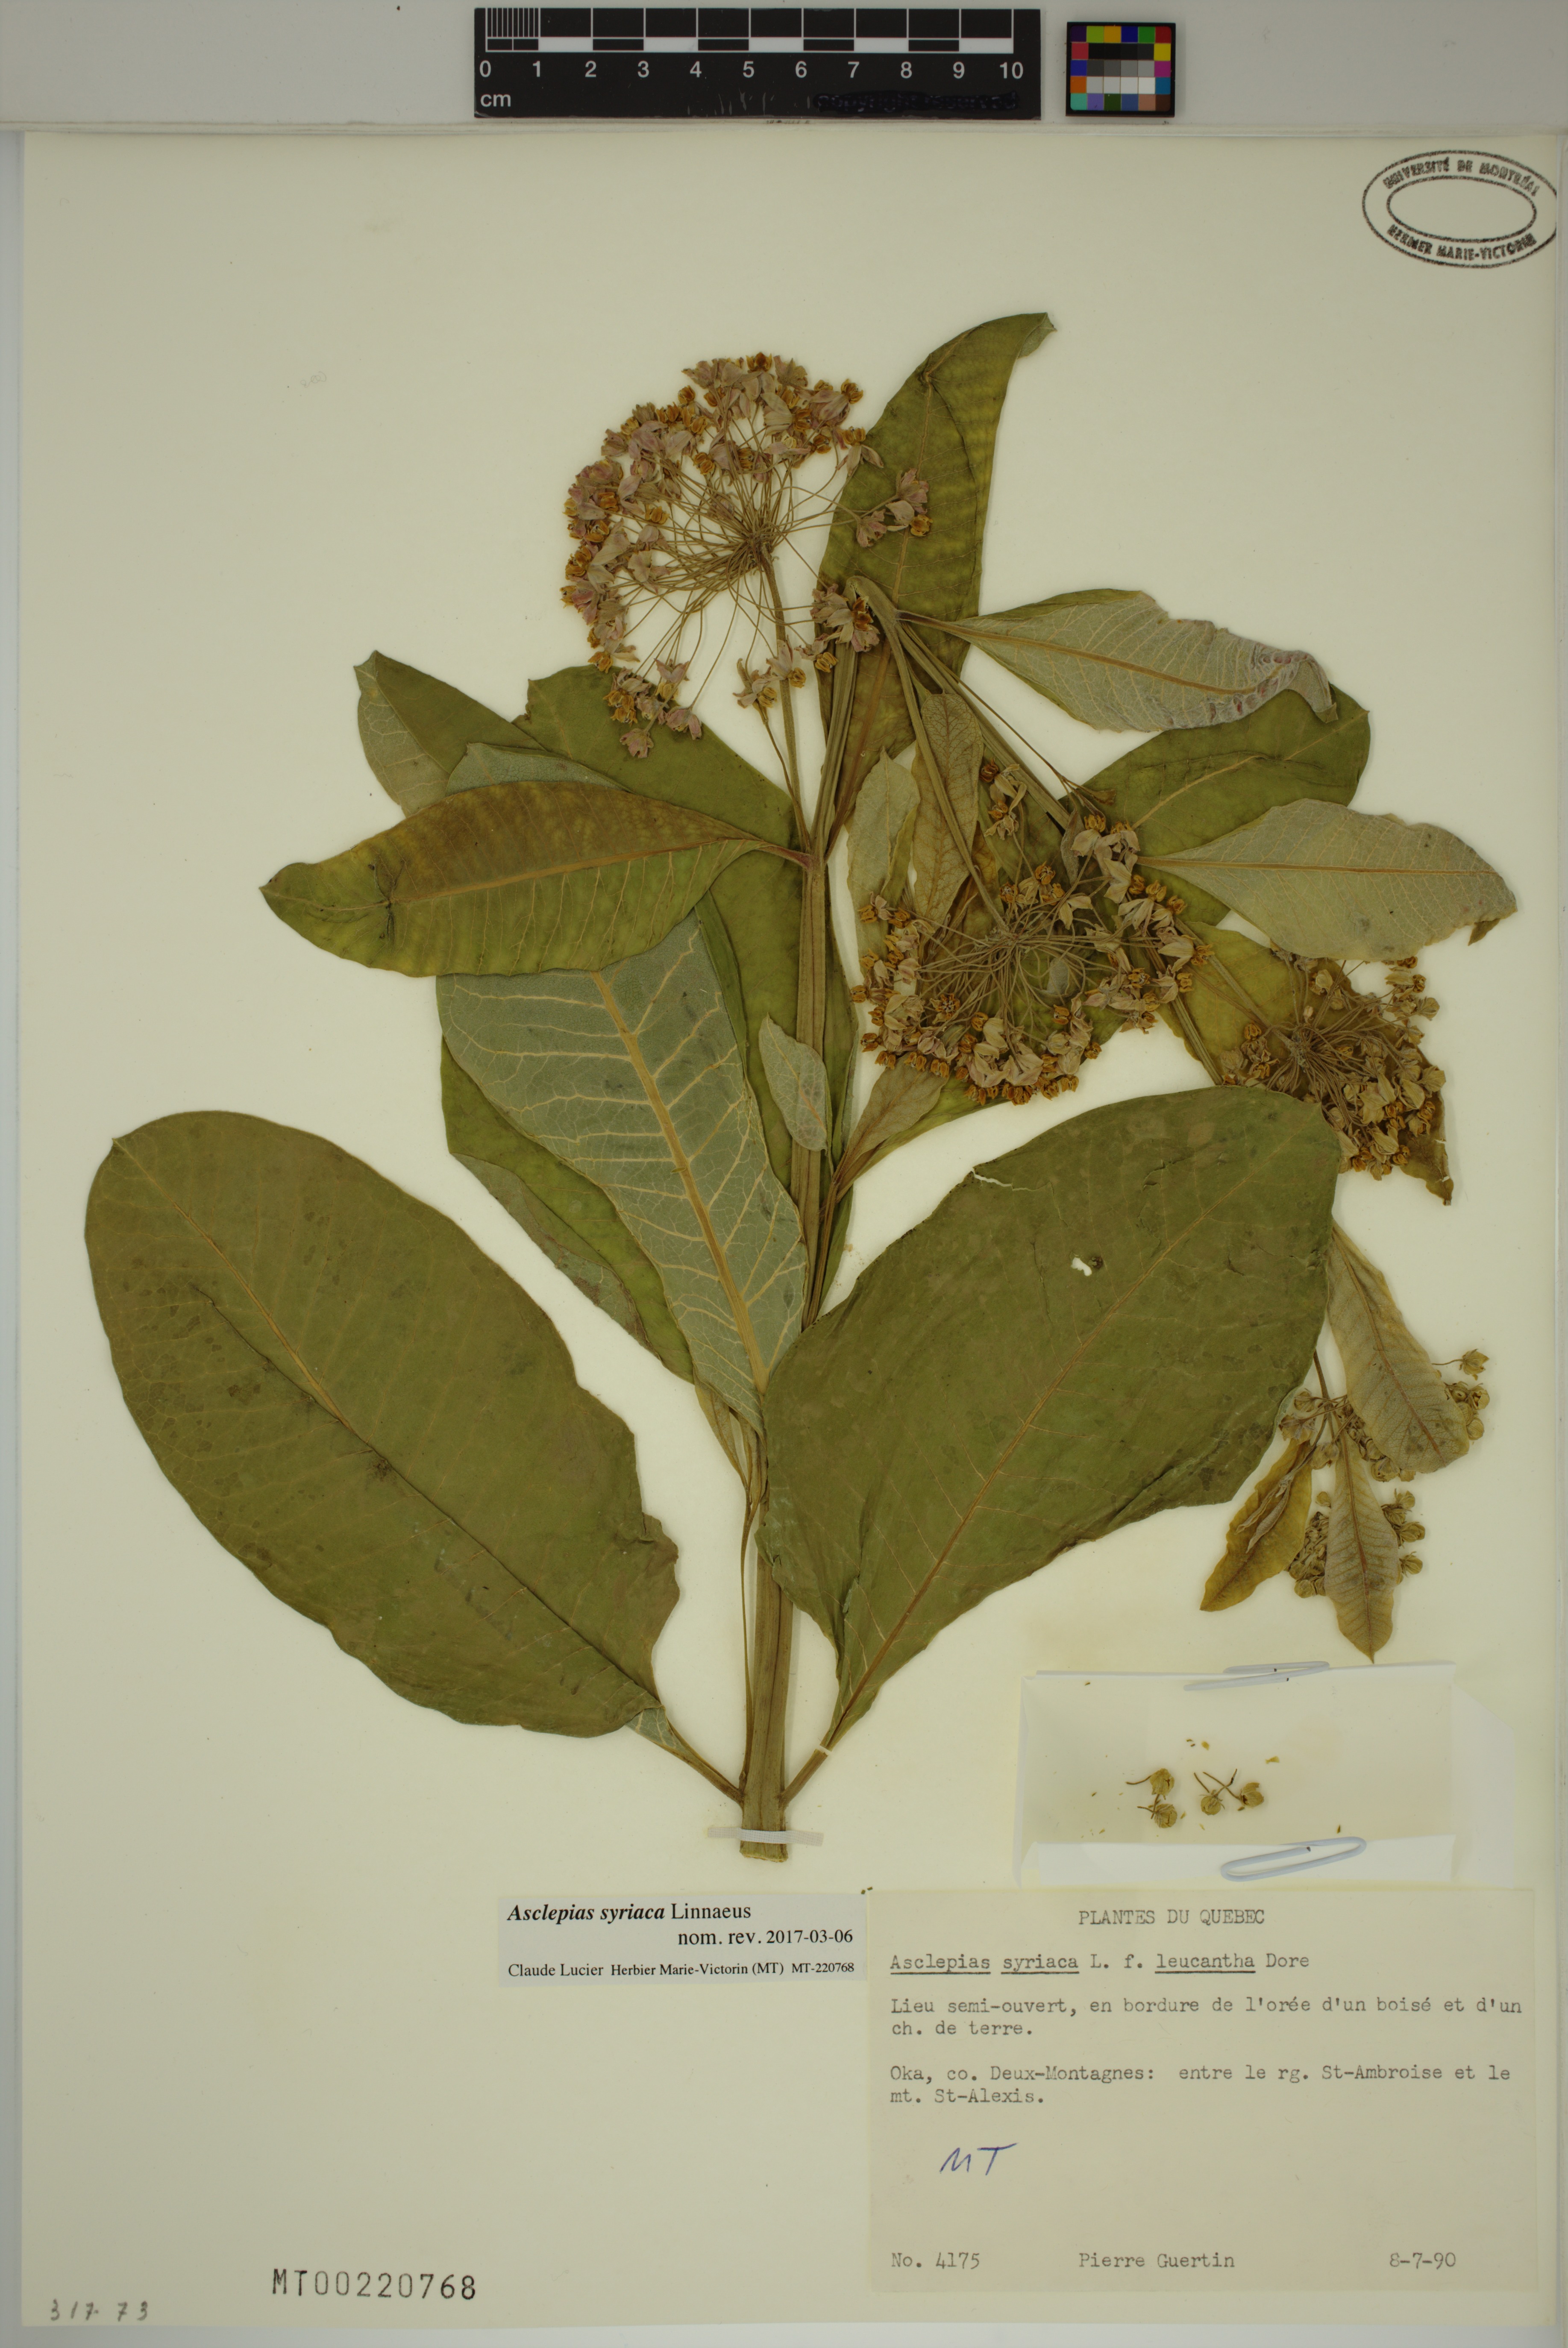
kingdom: Plantae
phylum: Tracheophyta
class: Magnoliopsida
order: Gentianales
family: Apocynaceae
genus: Asclepias
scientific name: Asclepias syriaca
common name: Common milkweed
